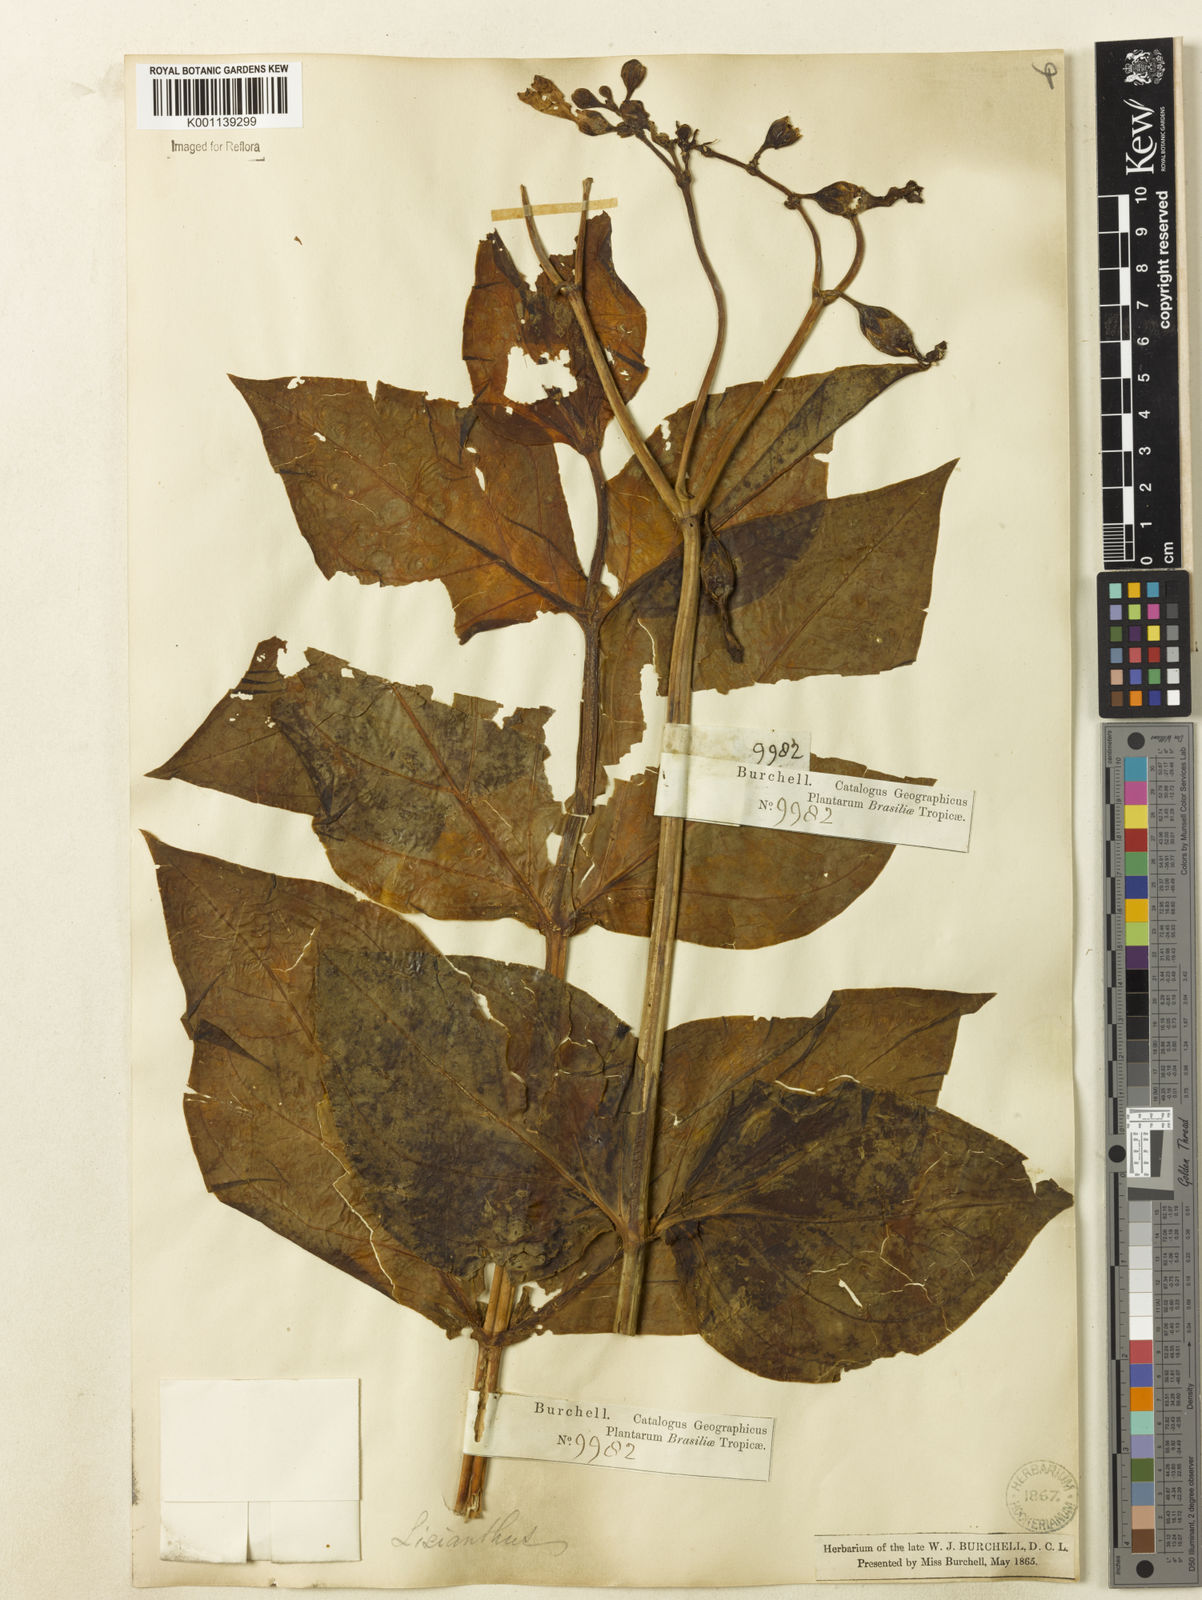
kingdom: Plantae
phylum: Tracheophyta
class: Magnoliopsida
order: Gentianales
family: Gentianaceae
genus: Chelonanthus
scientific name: Chelonanthus viridiflorus
